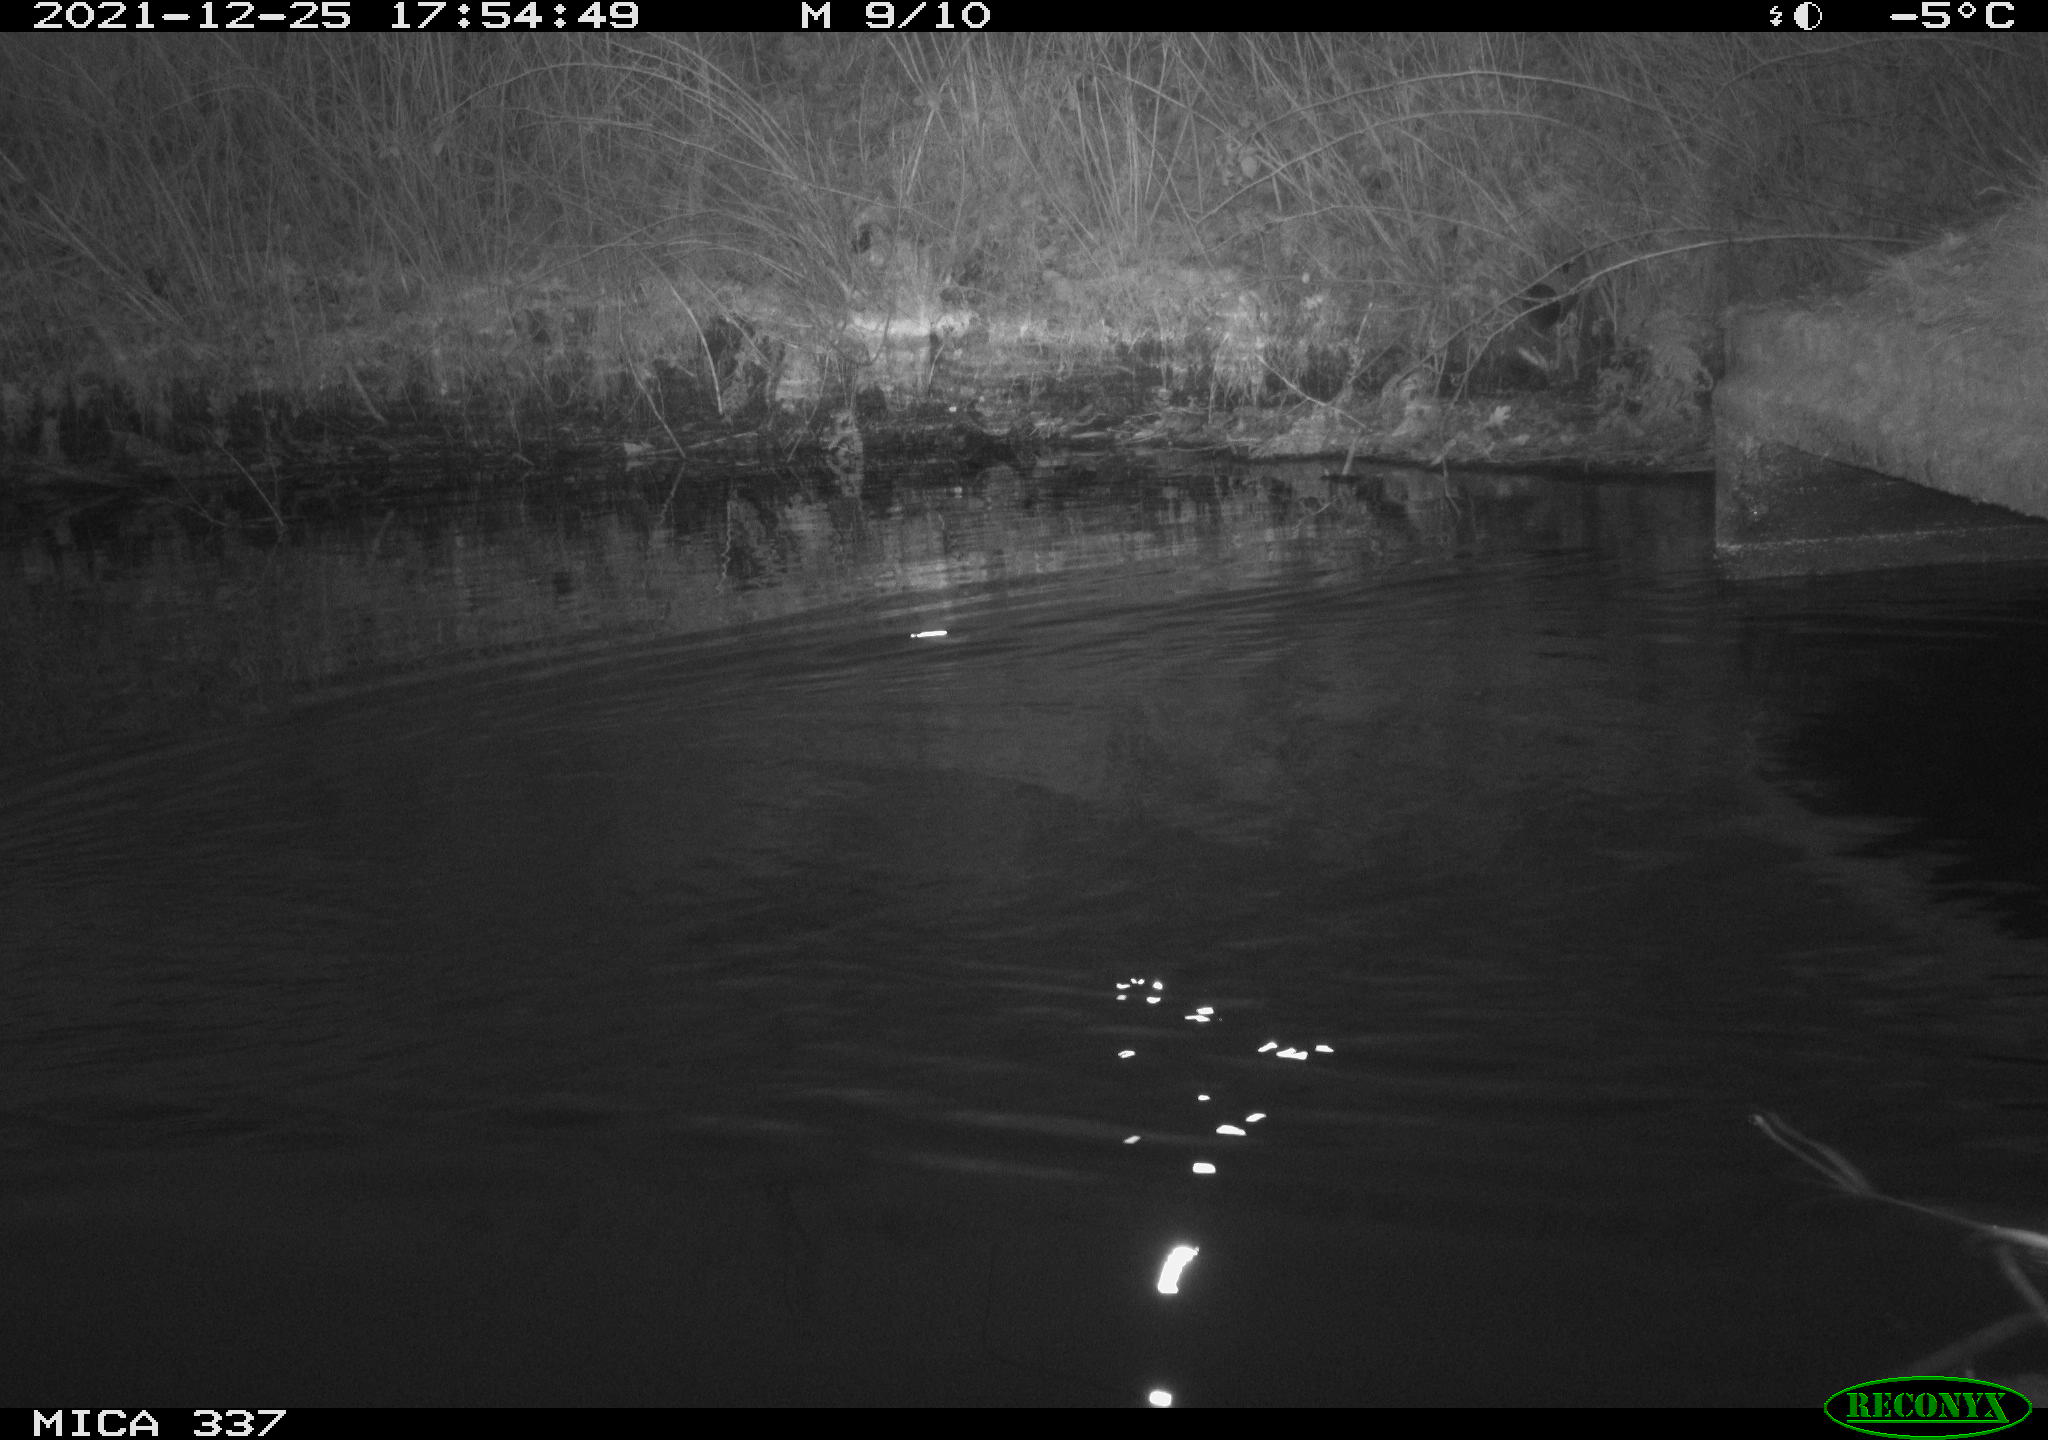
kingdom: Animalia
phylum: Chordata
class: Aves
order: Anseriformes
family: Anatidae
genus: Anas
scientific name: Anas platyrhynchos
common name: Mallard
